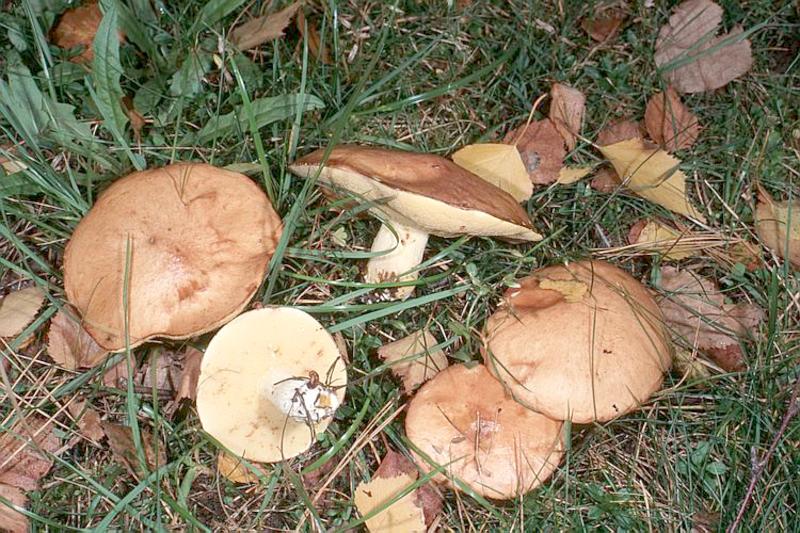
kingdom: Fungi
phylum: Basidiomycota
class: Agaricomycetes
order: Boletales
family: Suillaceae
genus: Suillus
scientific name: Suillus granulatus
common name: Weeping bolete
